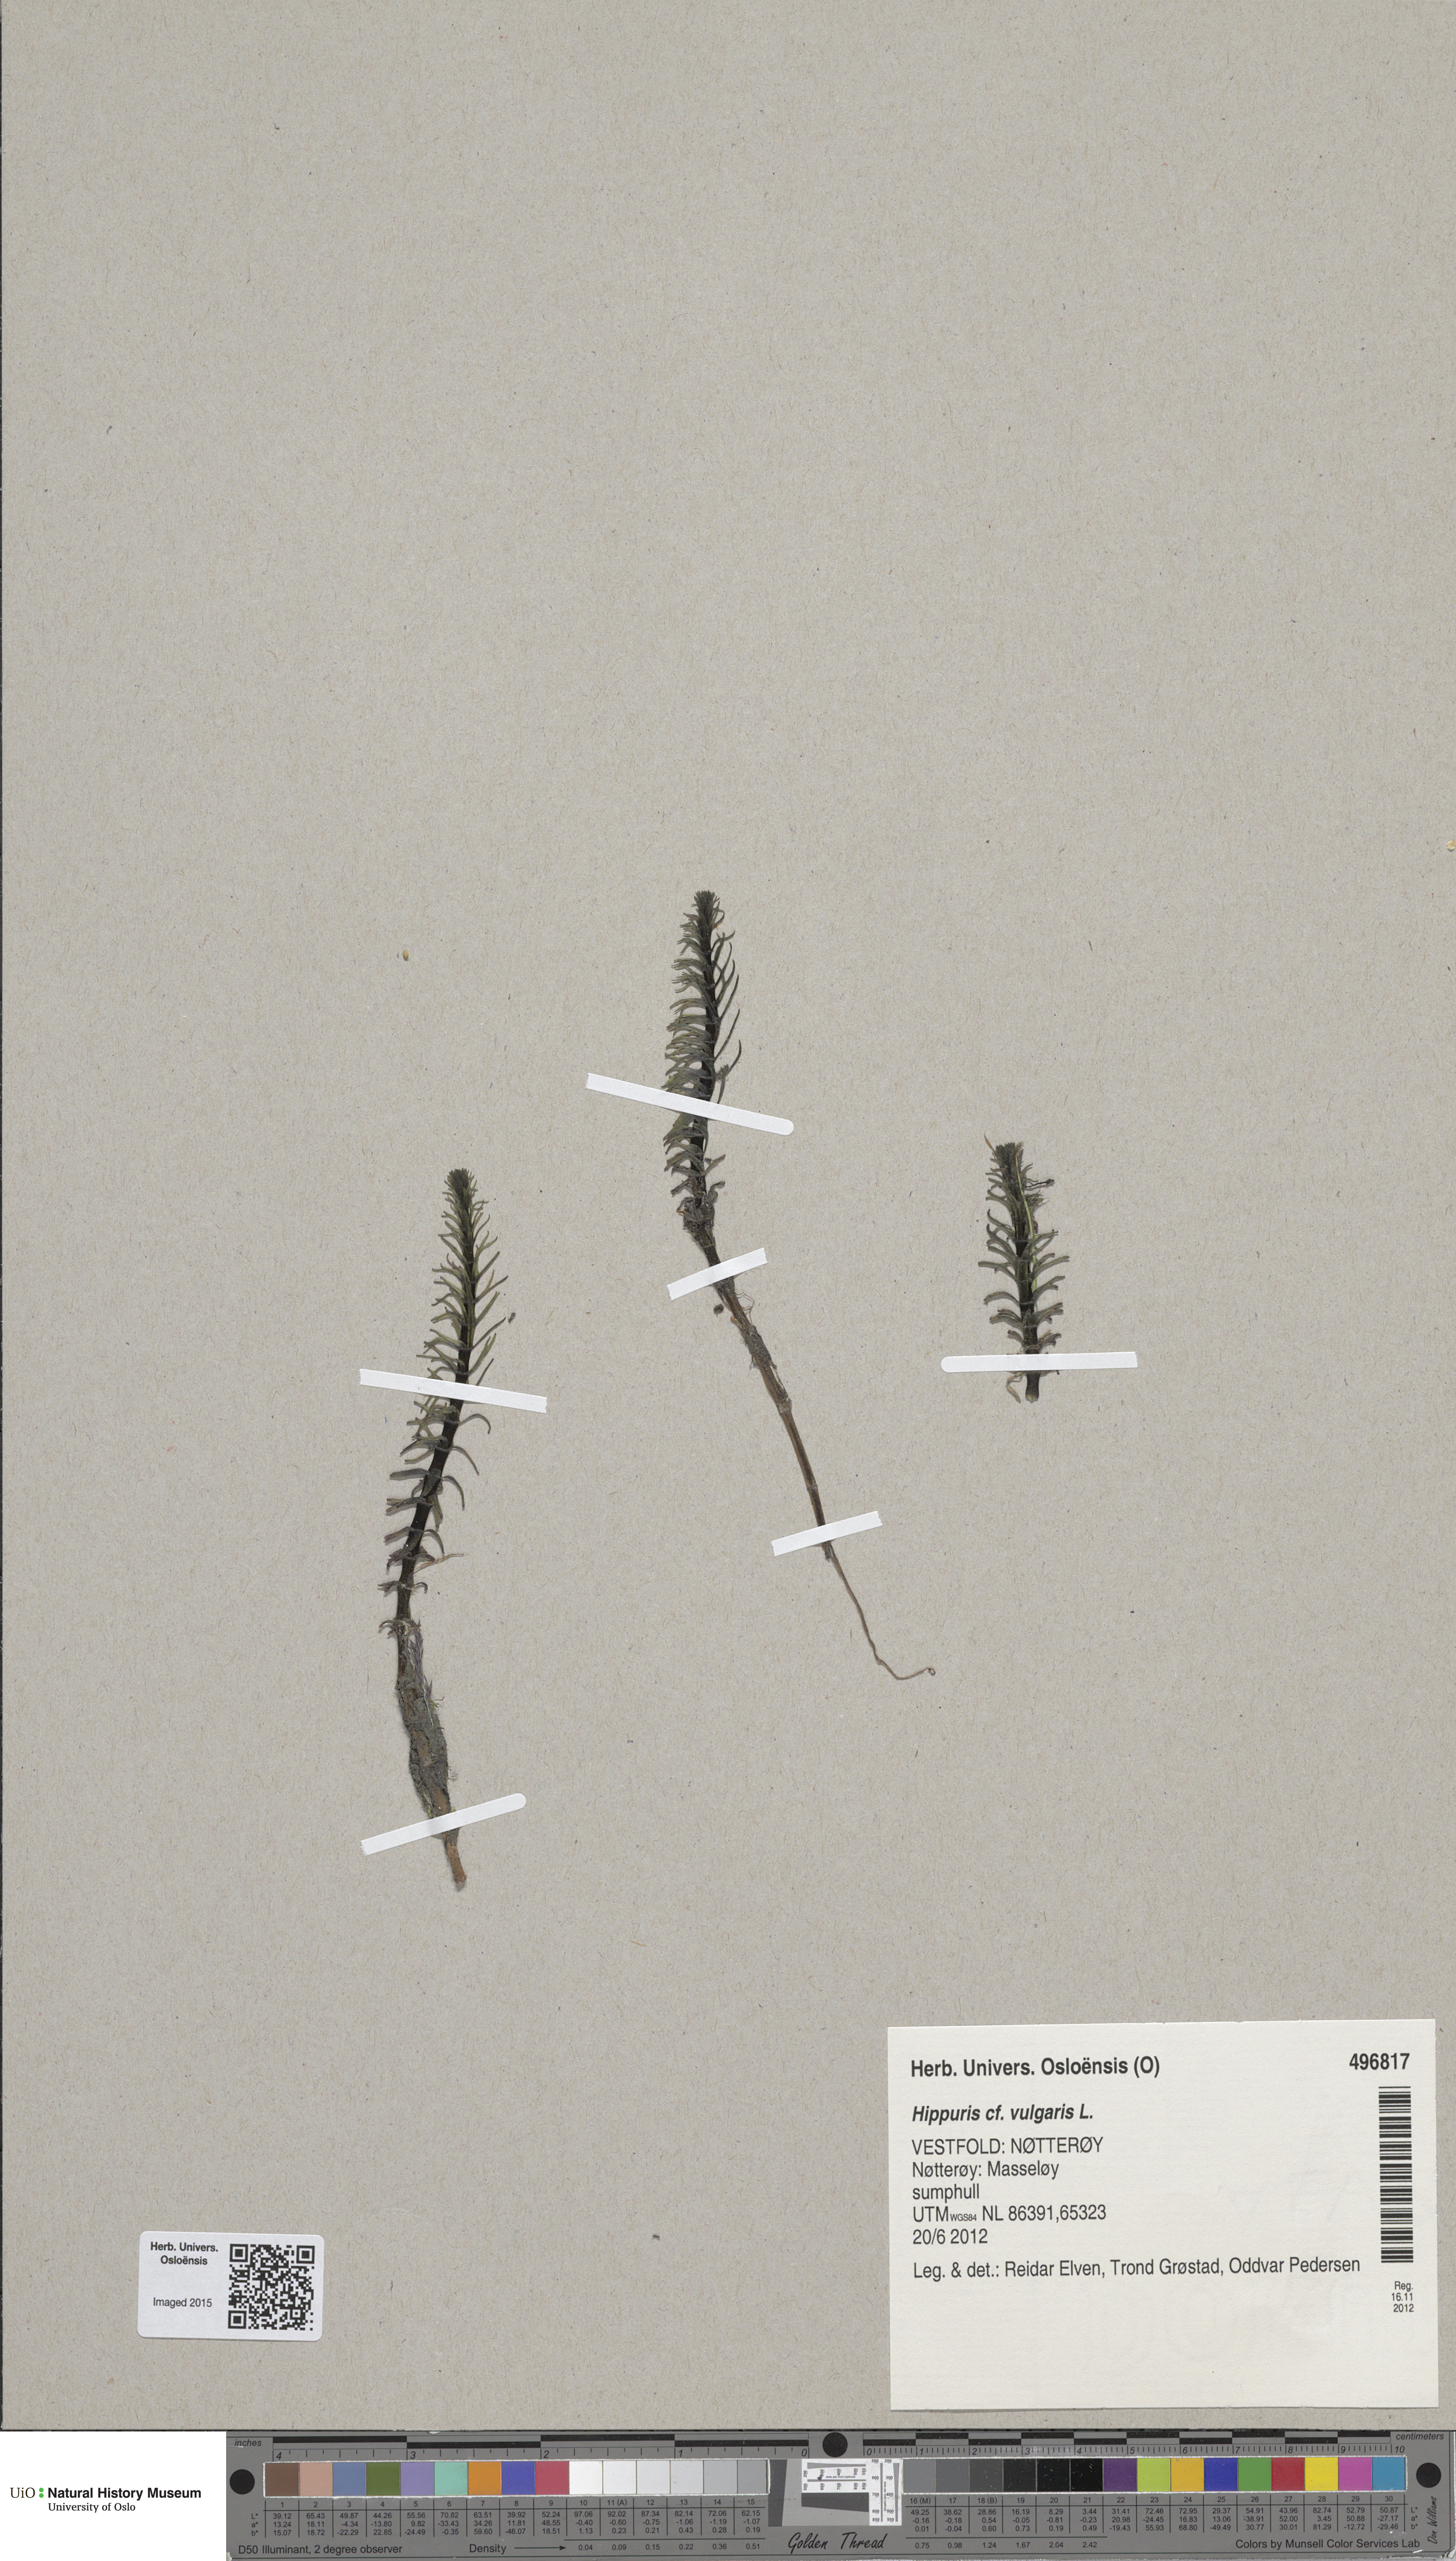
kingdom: Plantae
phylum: Tracheophyta
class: Magnoliopsida
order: Lamiales
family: Plantaginaceae
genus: Hippuris
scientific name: Hippuris vulgaris
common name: Mare's-tail
